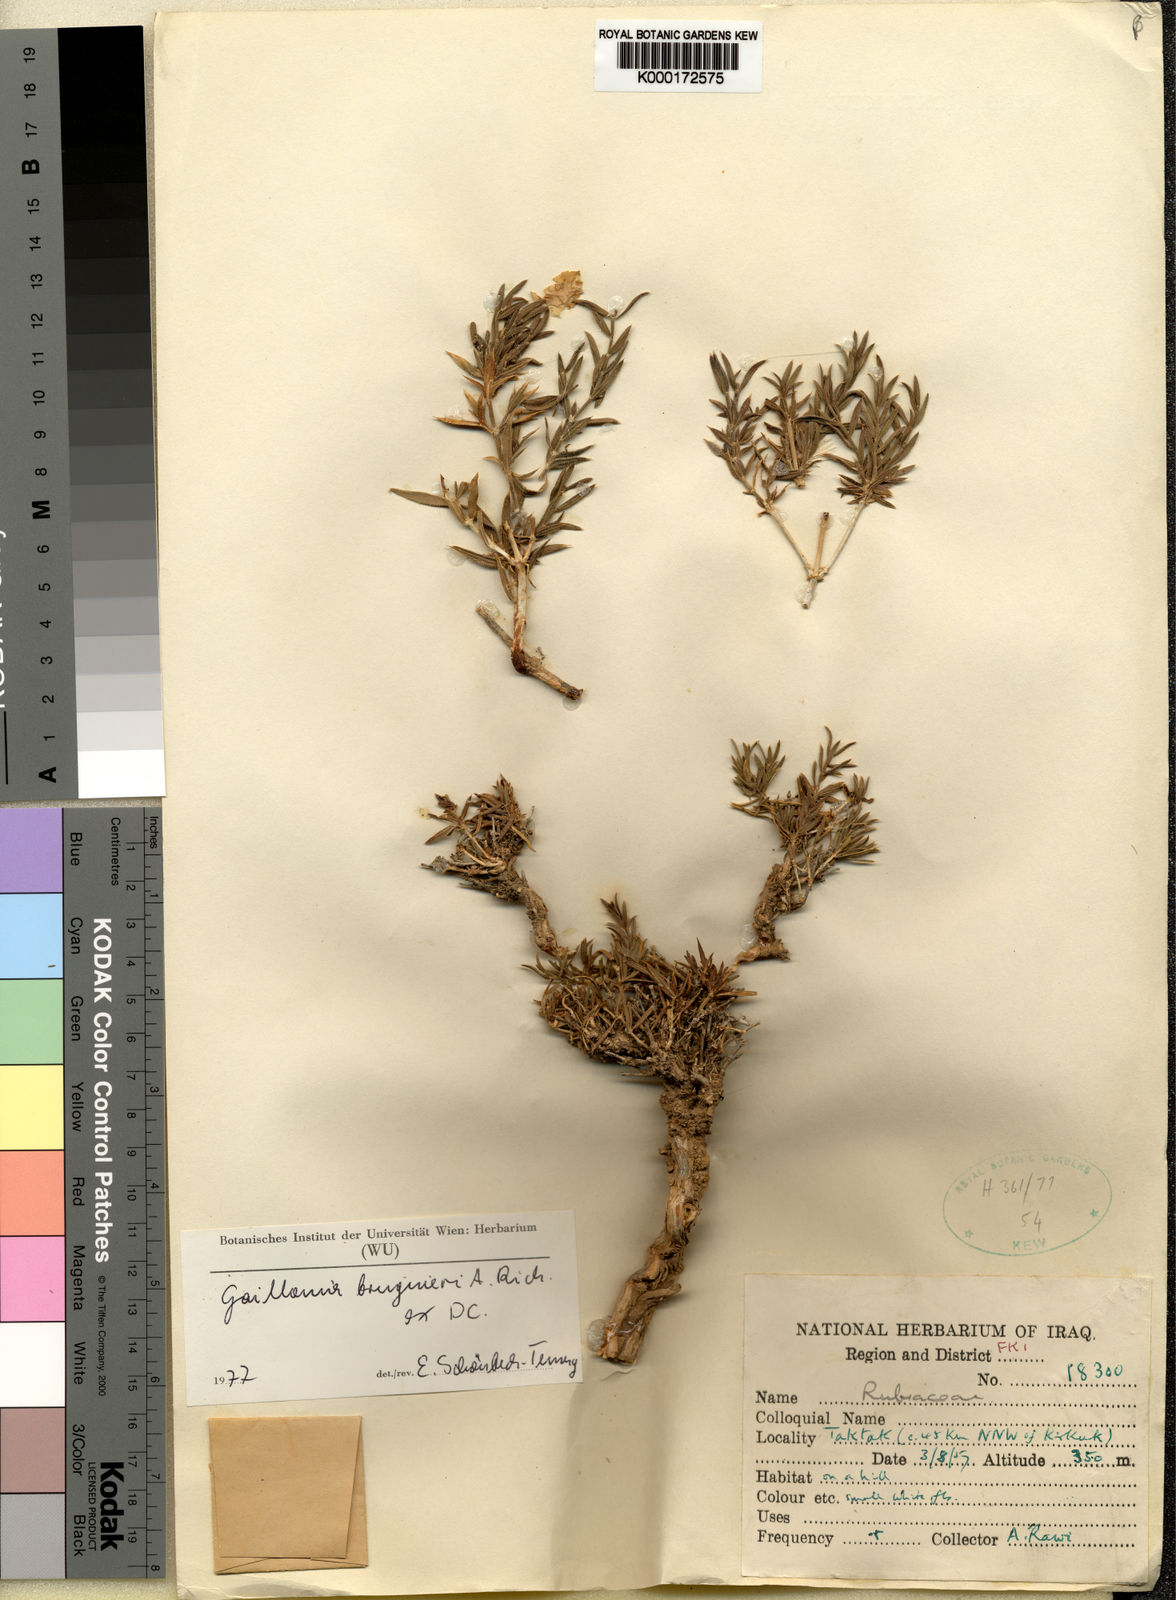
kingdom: Plantae
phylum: Tracheophyta
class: Magnoliopsida
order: Gentianales
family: Rubiaceae
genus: Plocama
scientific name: Plocama bruguieri
